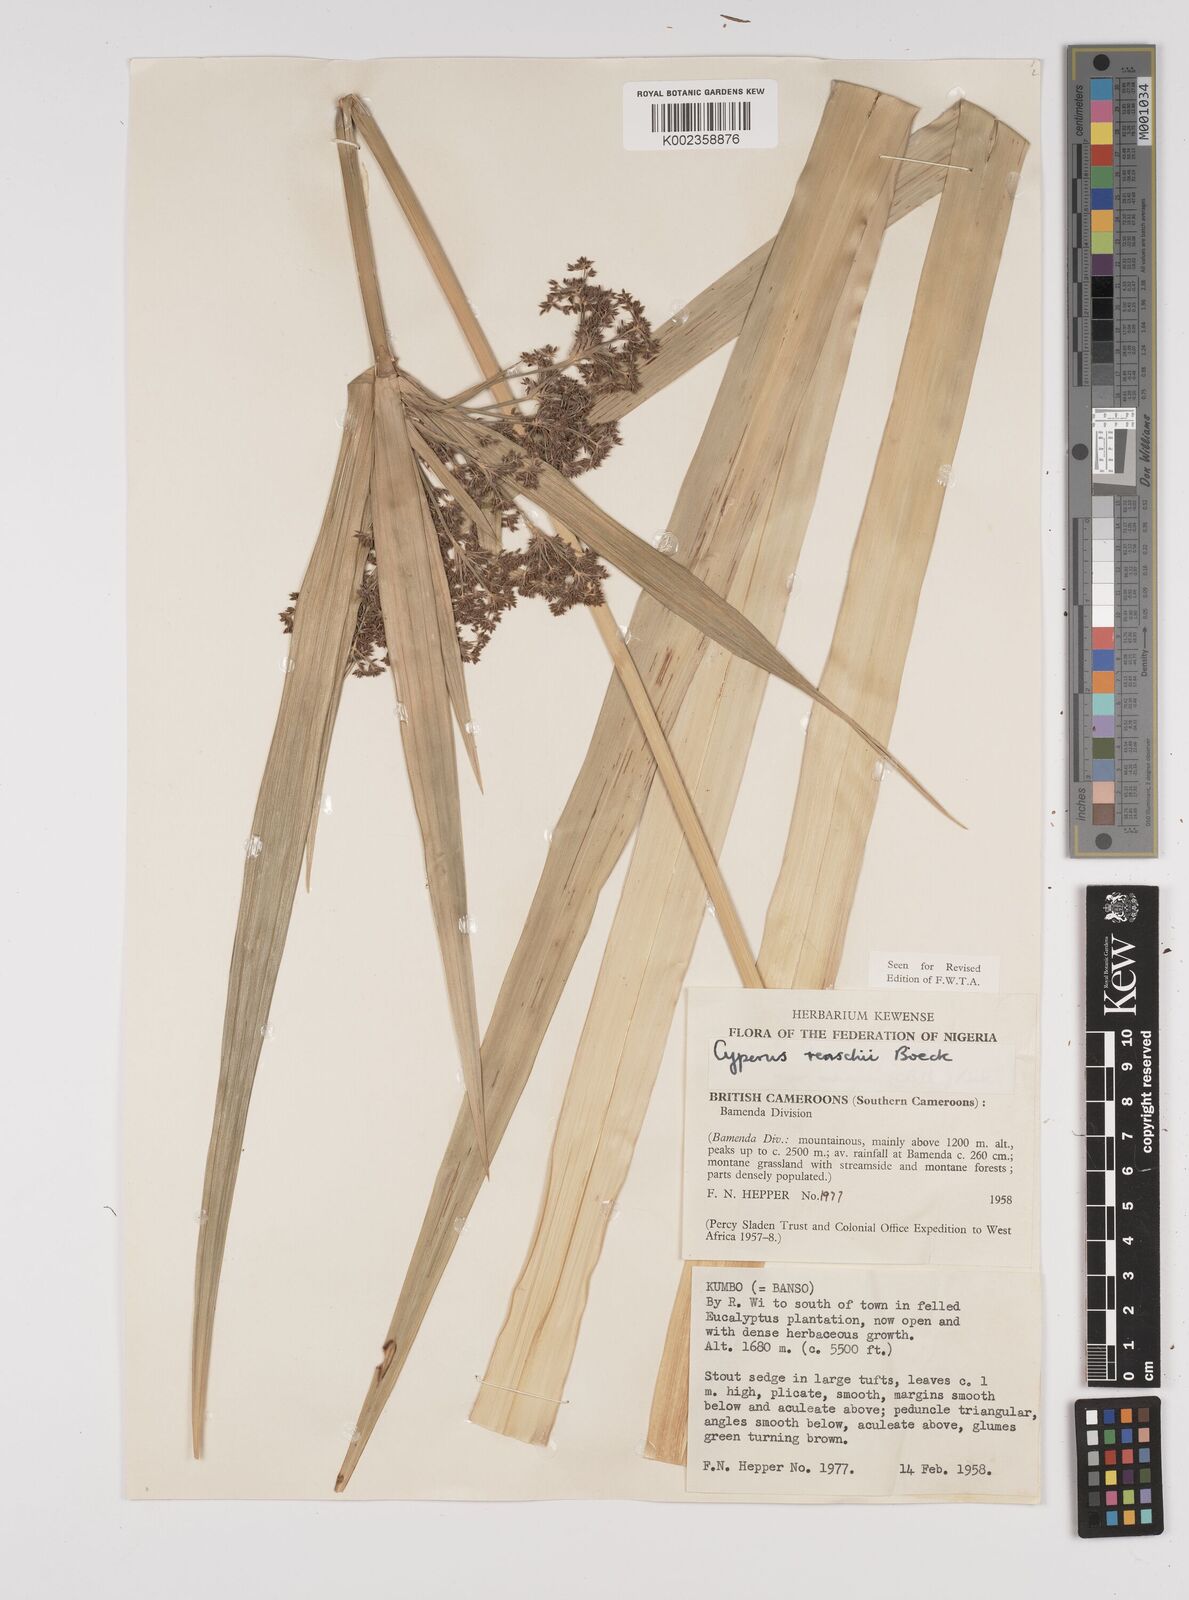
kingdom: Plantae
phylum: Tracheophyta
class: Liliopsida
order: Poales
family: Cyperaceae
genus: Cyperus
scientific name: Cyperus renschii
